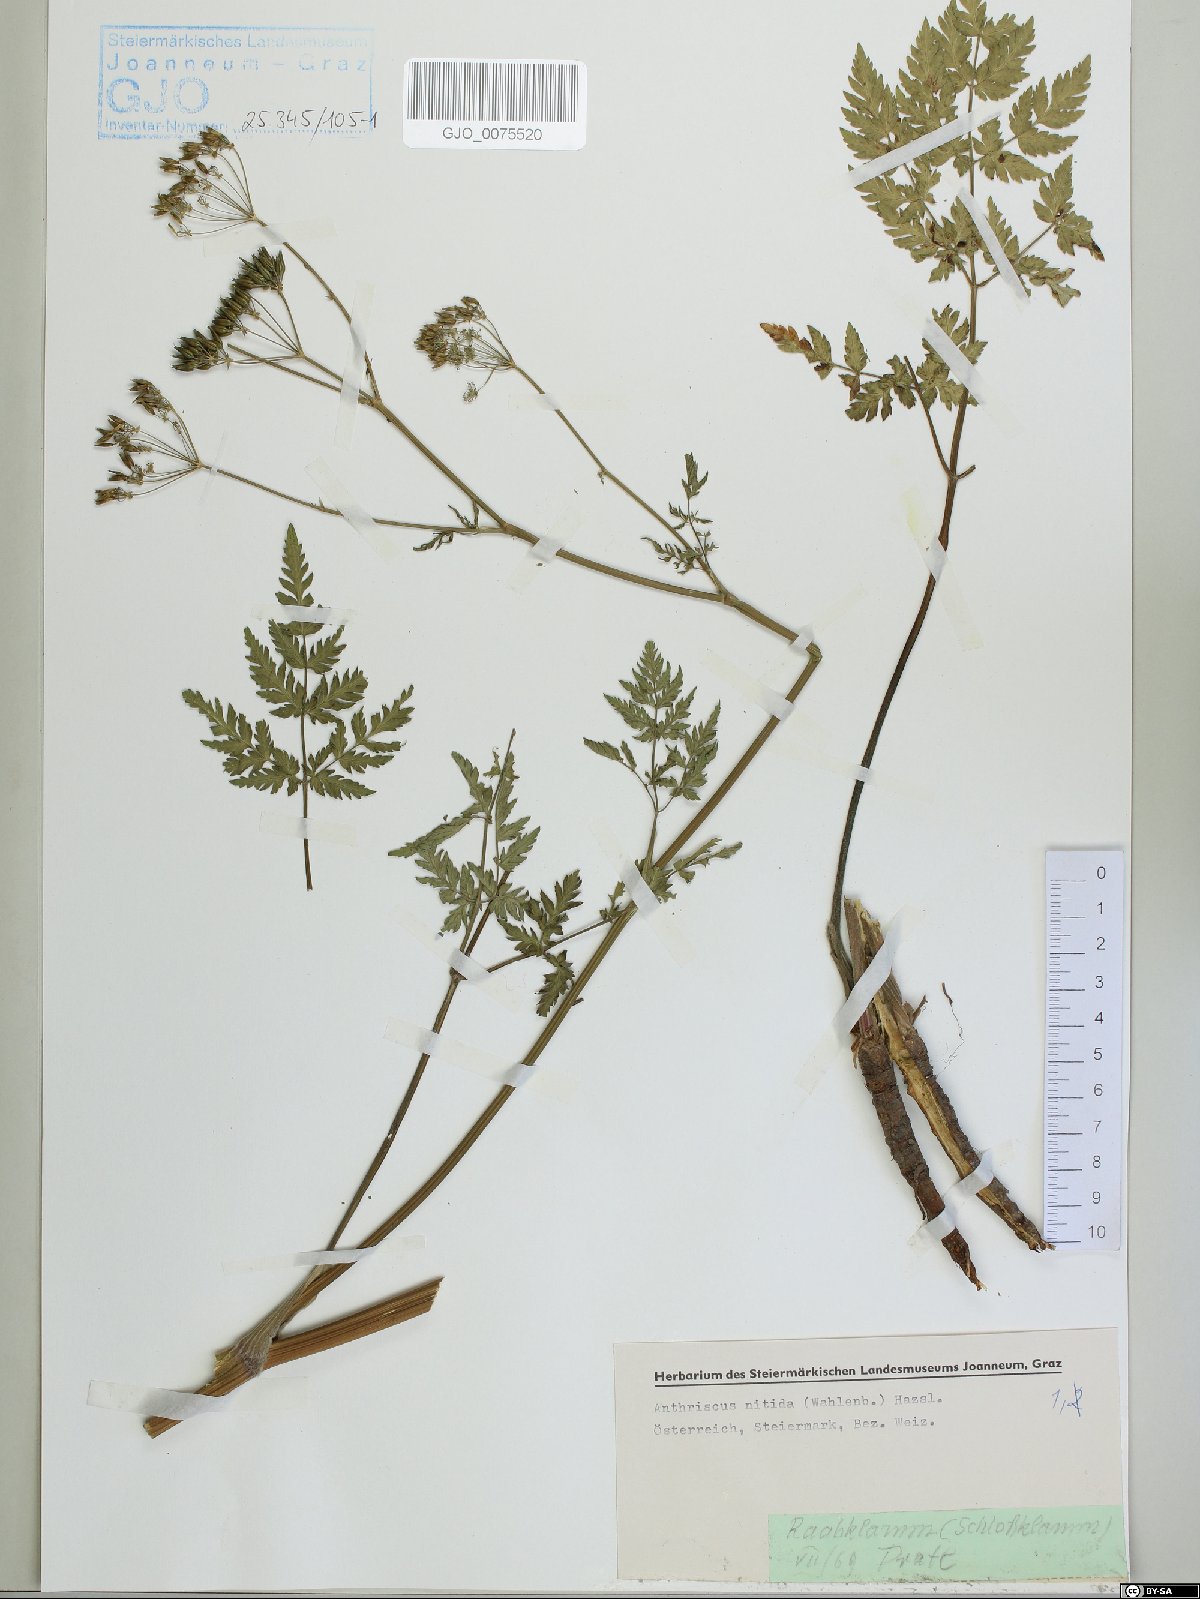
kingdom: Plantae
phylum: Tracheophyta
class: Magnoliopsida
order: Apiales
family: Apiaceae
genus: Anthriscus
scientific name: Anthriscus nitida
